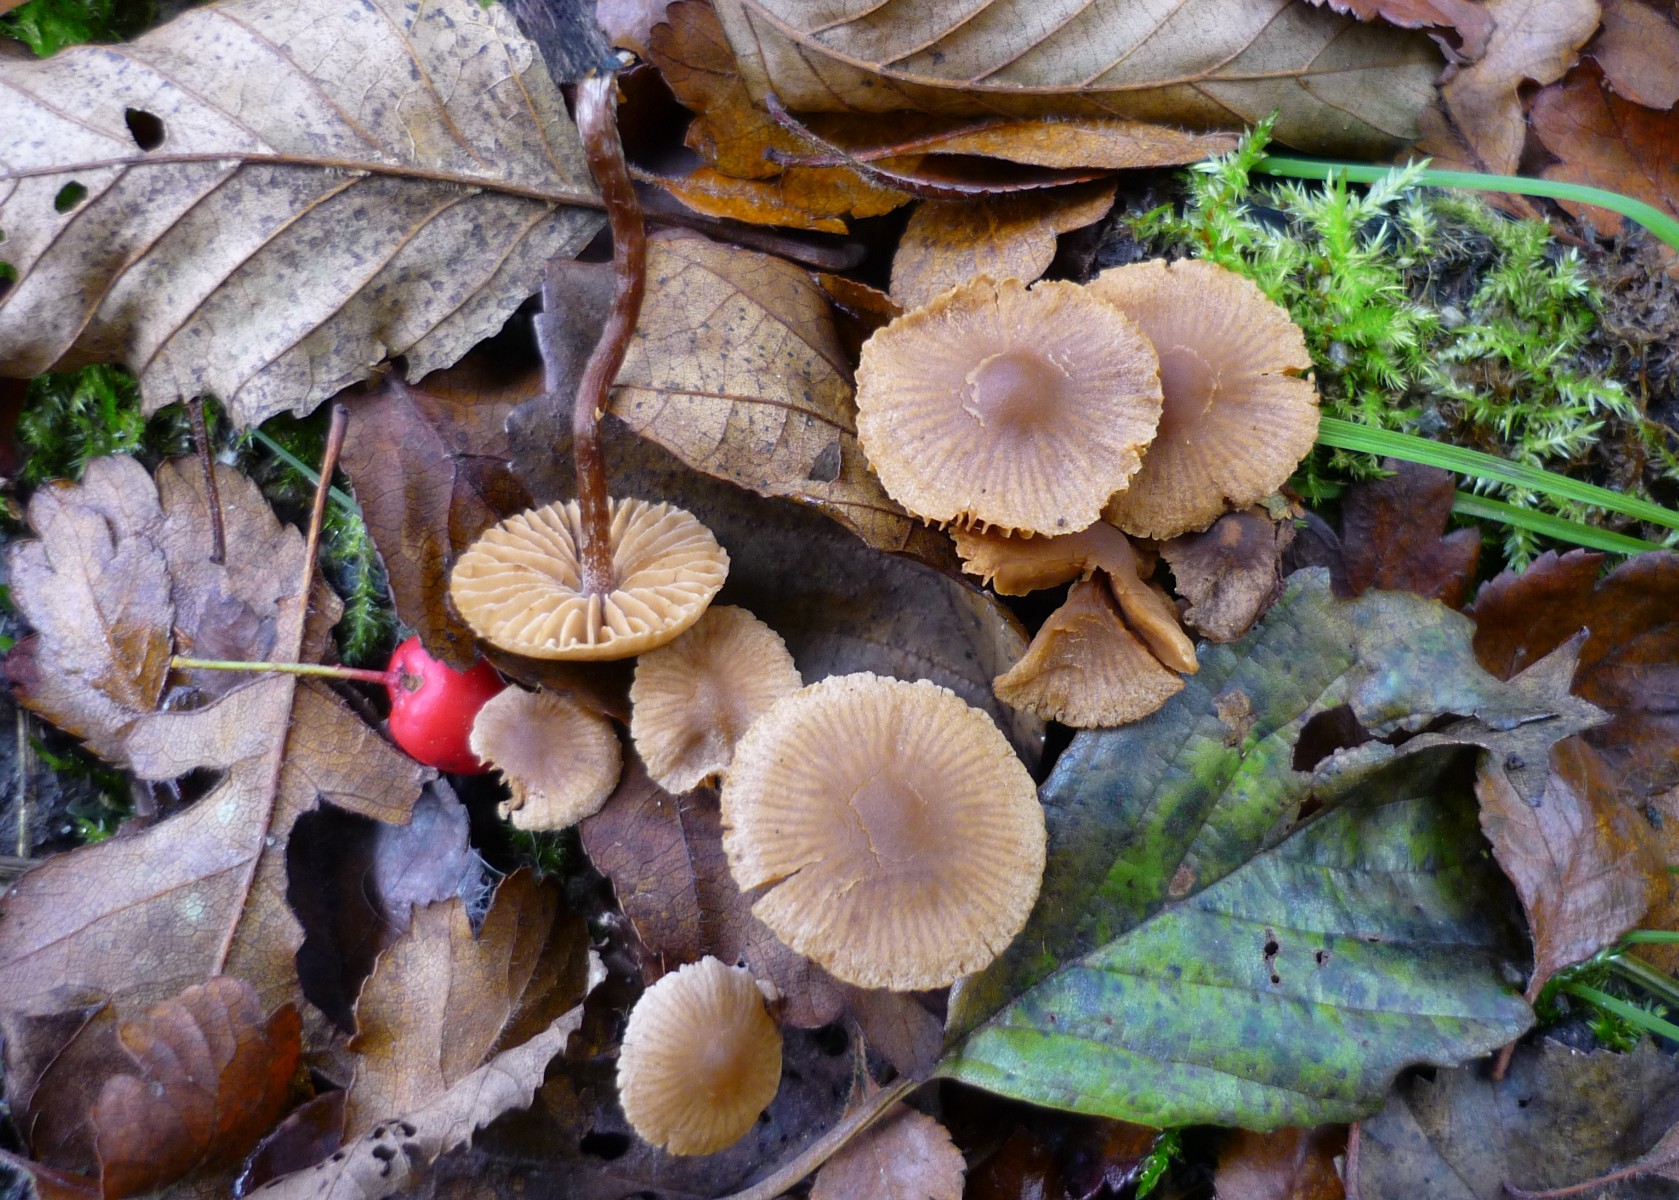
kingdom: Fungi
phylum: Basidiomycota
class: Agaricomycetes
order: Agaricales
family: Hymenogastraceae
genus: Naucoria
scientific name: Naucoria scolecina
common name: mørk elle-knaphat
